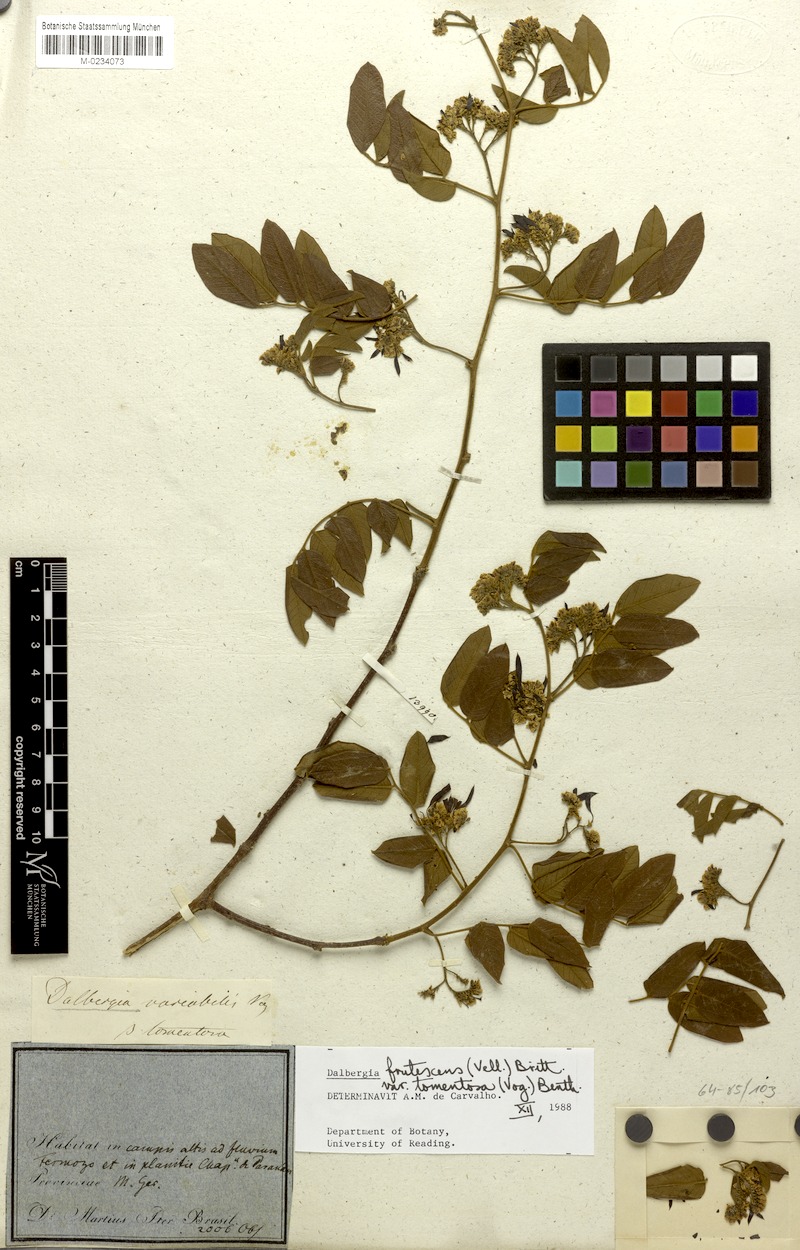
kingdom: Plantae
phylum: Tracheophyta
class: Magnoliopsida
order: Fabales
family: Fabaceae
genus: Dalbergia
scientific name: Dalbergia frutescens
